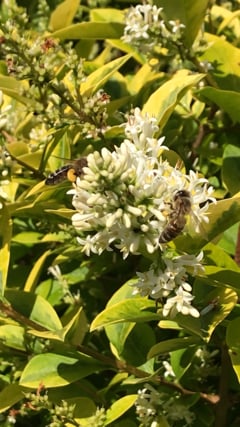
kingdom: Animalia
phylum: Arthropoda
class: Insecta
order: Hymenoptera
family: Apidae
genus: Apis
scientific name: Apis mellifera
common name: Honey bee
